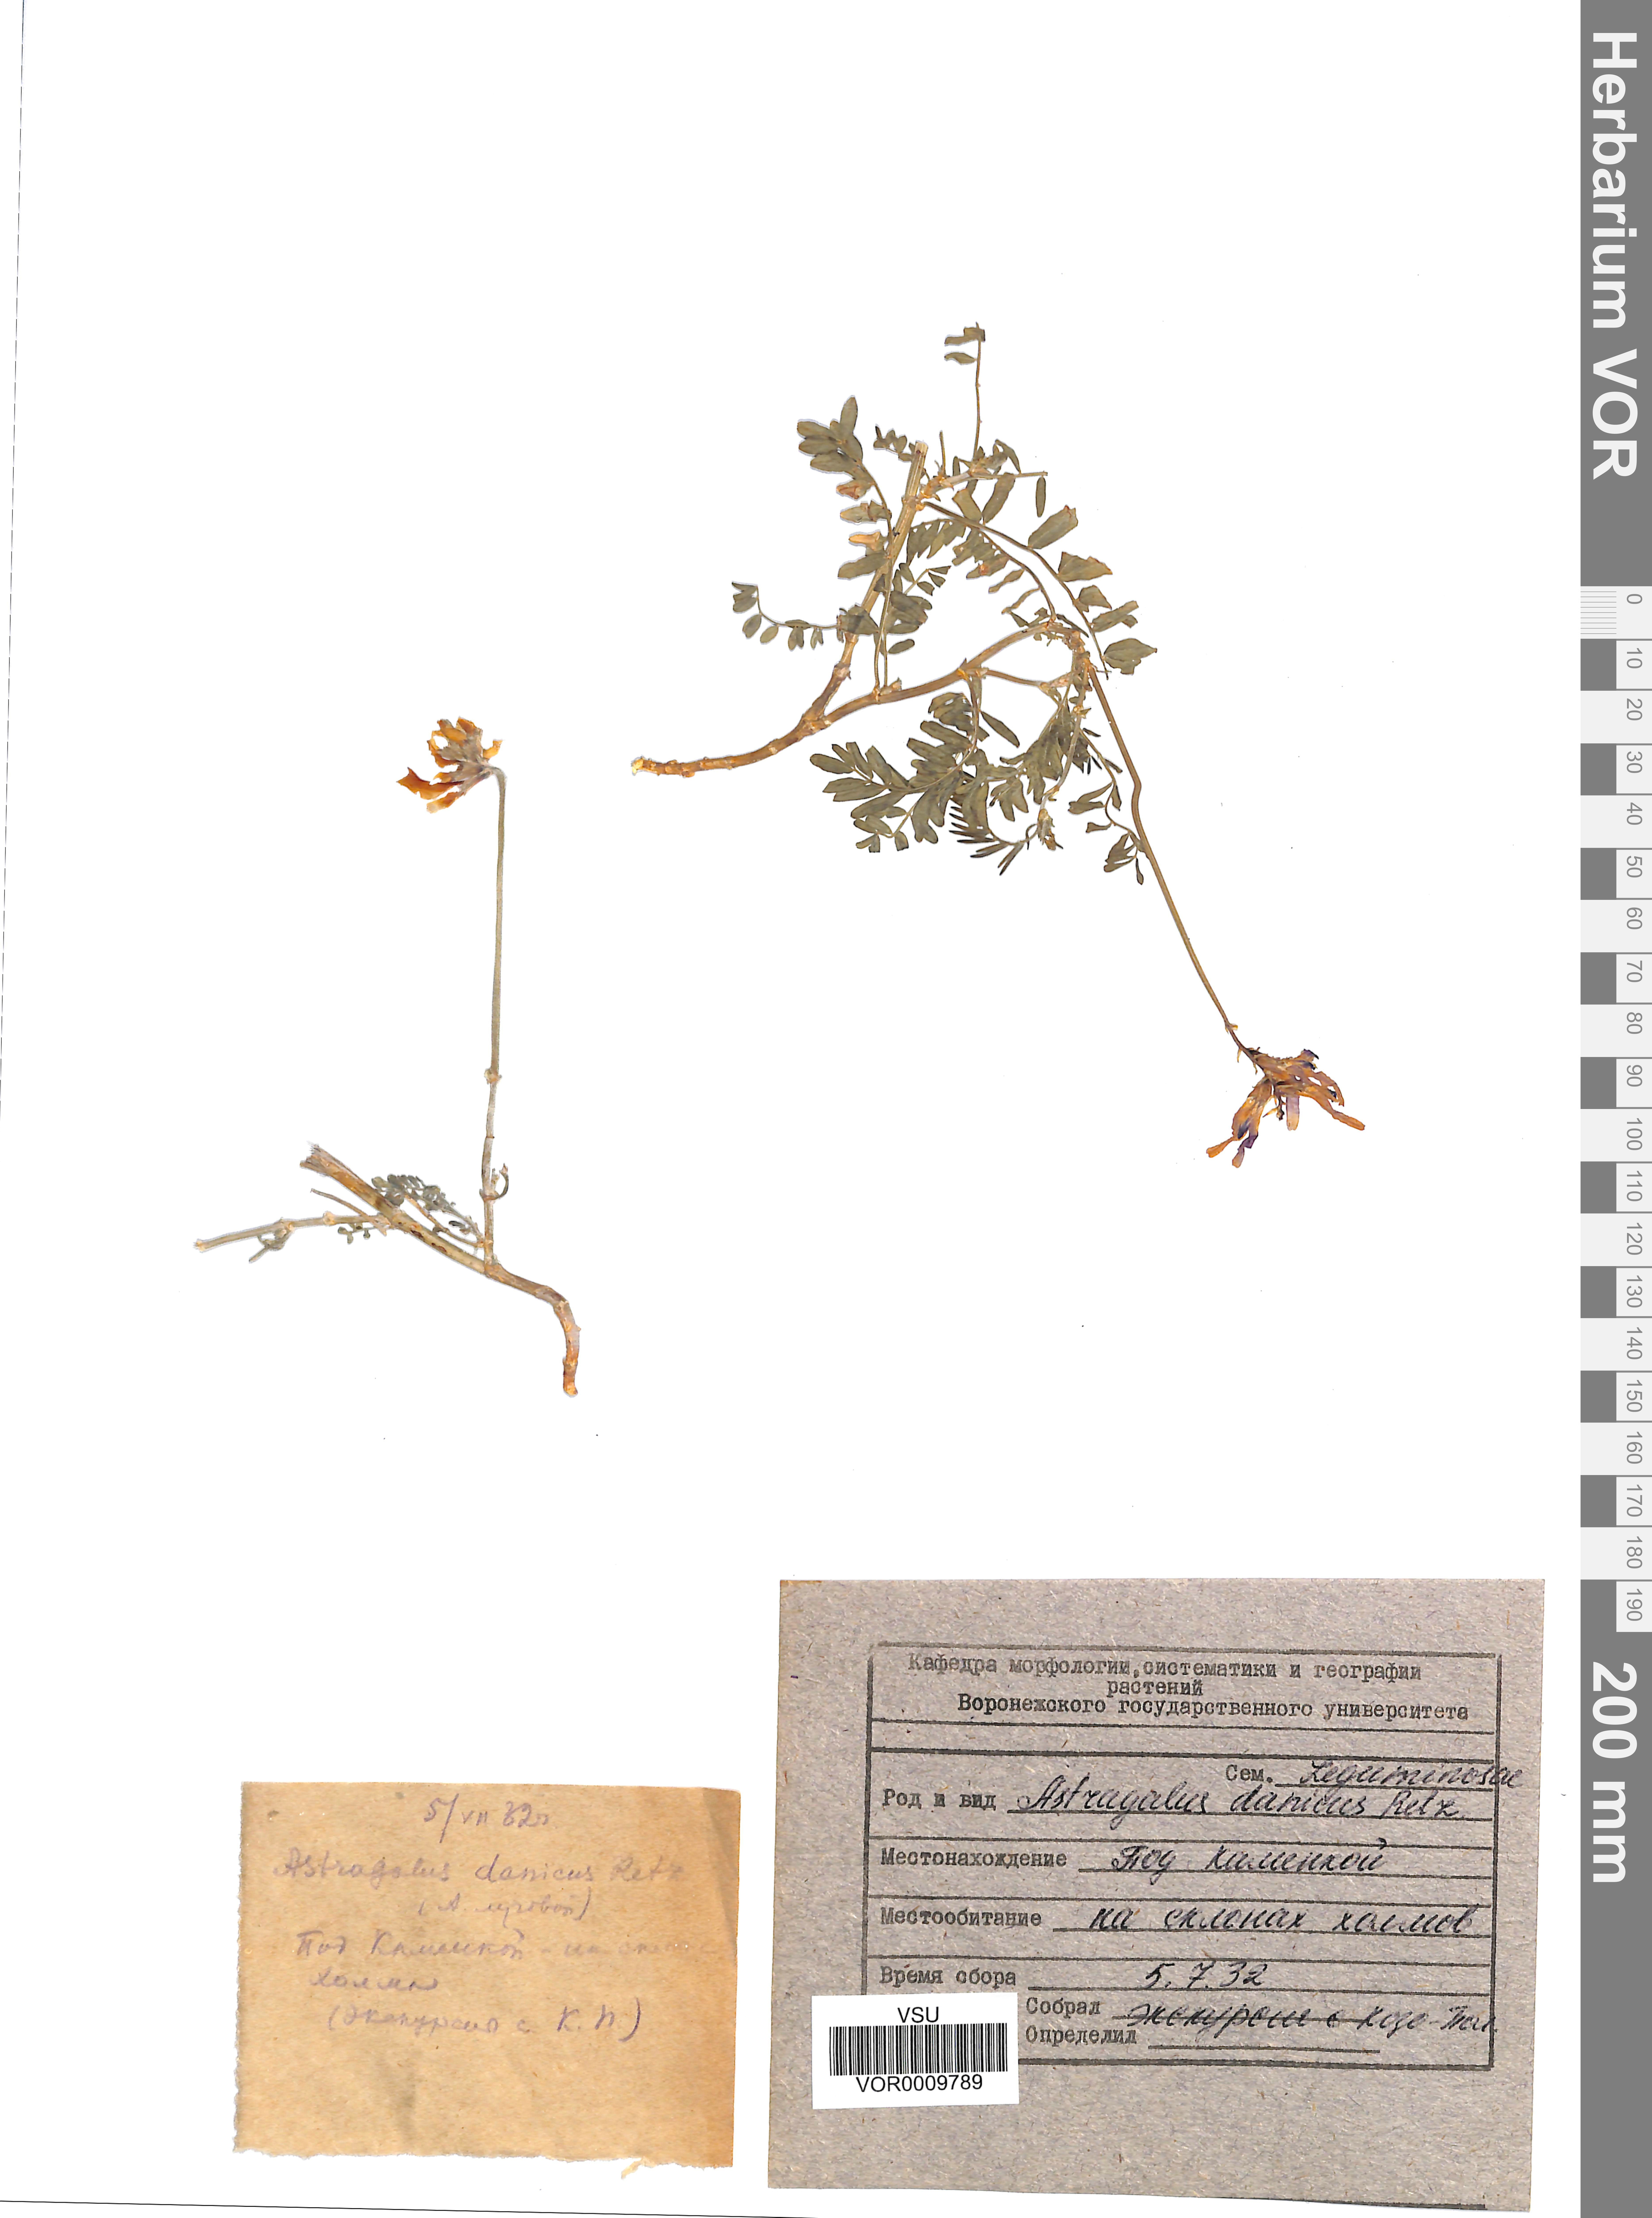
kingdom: Plantae
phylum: Tracheophyta
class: Magnoliopsida
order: Fabales
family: Fabaceae
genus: Astragalus
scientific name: Astragalus danicus
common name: Purple milk-vetch
